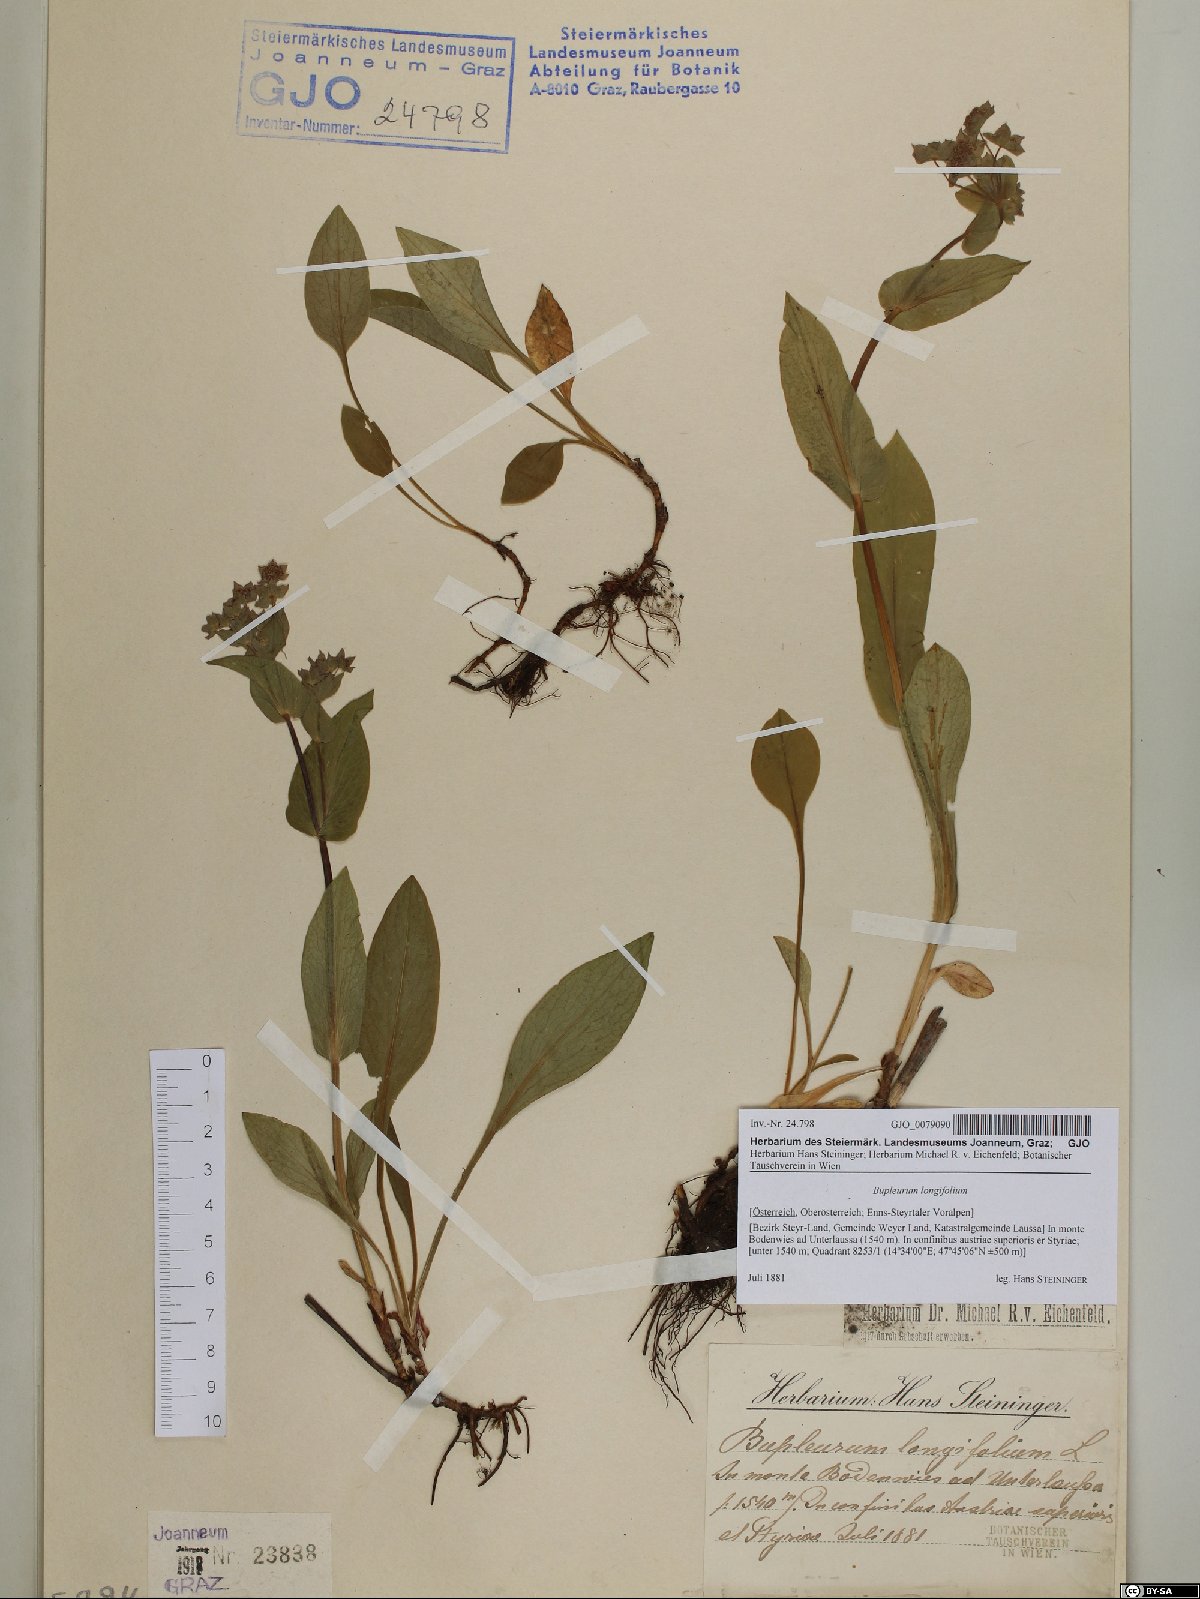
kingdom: Plantae
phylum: Tracheophyta
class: Magnoliopsida
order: Apiales
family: Apiaceae
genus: Bupleurum
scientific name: Bupleurum longifolium
